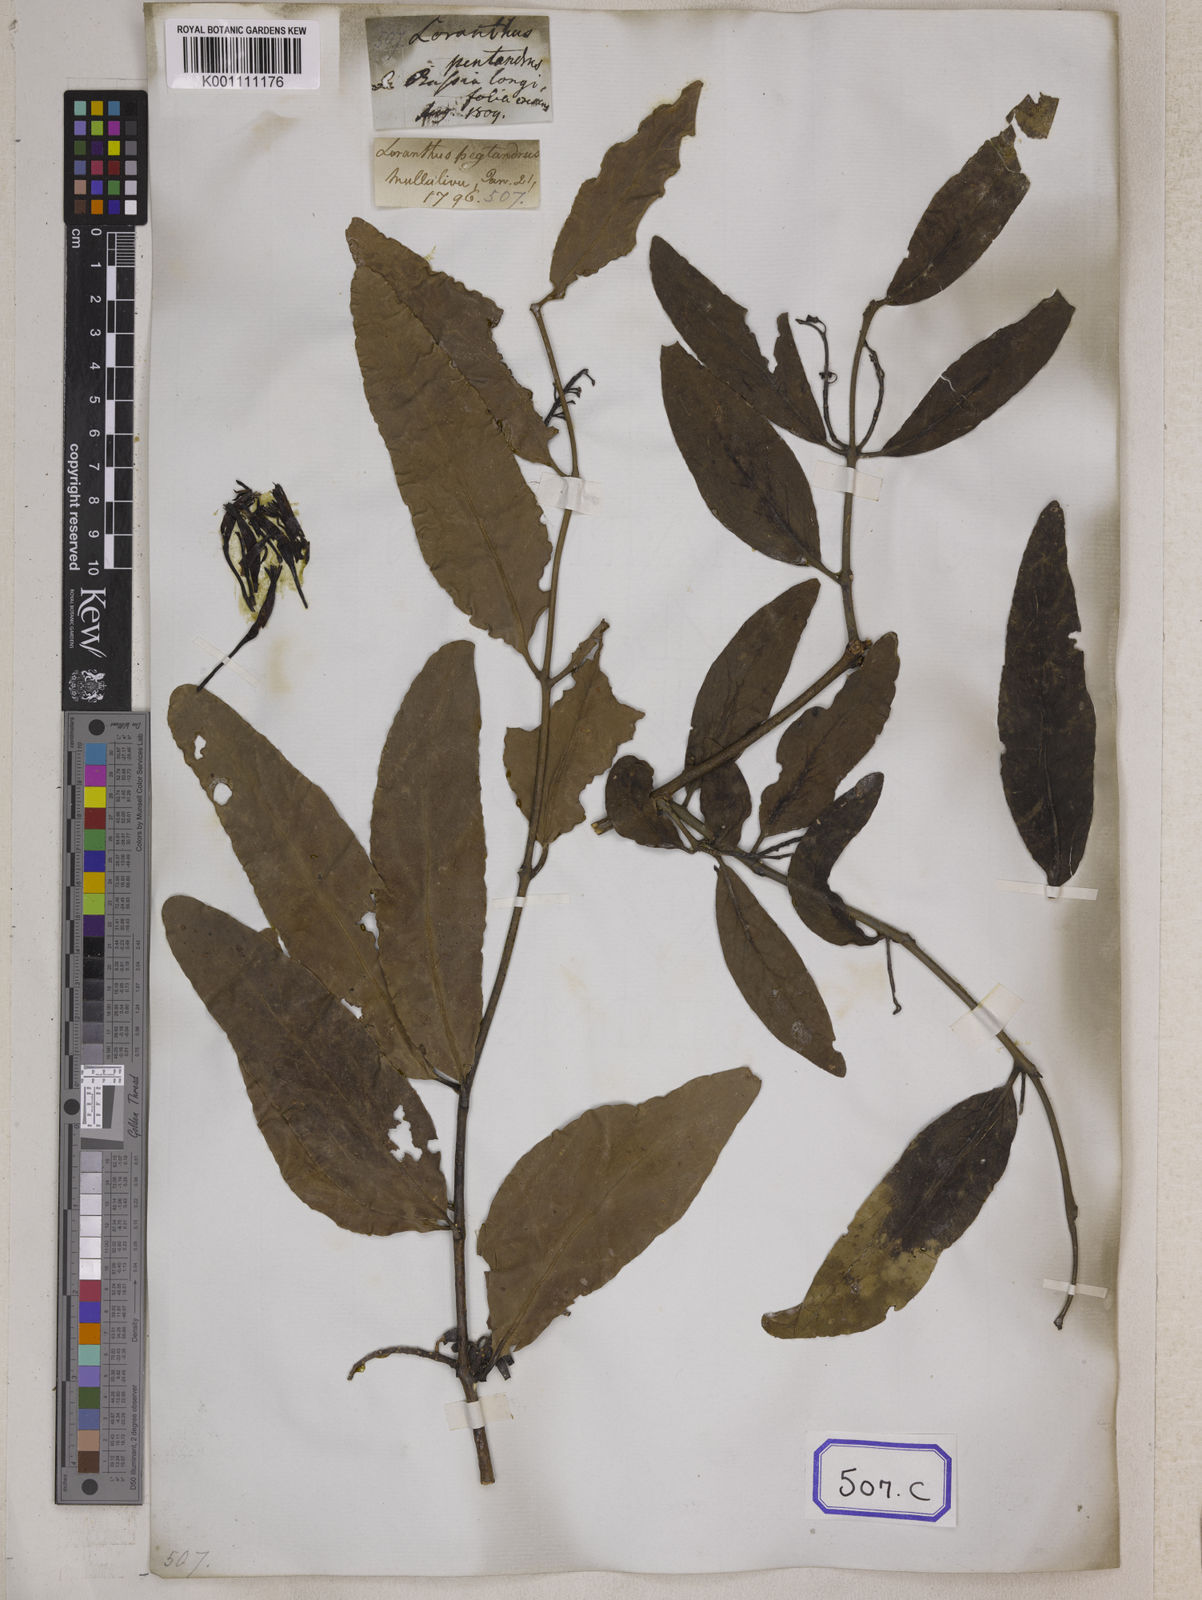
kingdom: Plantae
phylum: Tracheophyta
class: Magnoliopsida
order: Santalales
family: Loranthaceae
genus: Loranthus
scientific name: Loranthus
